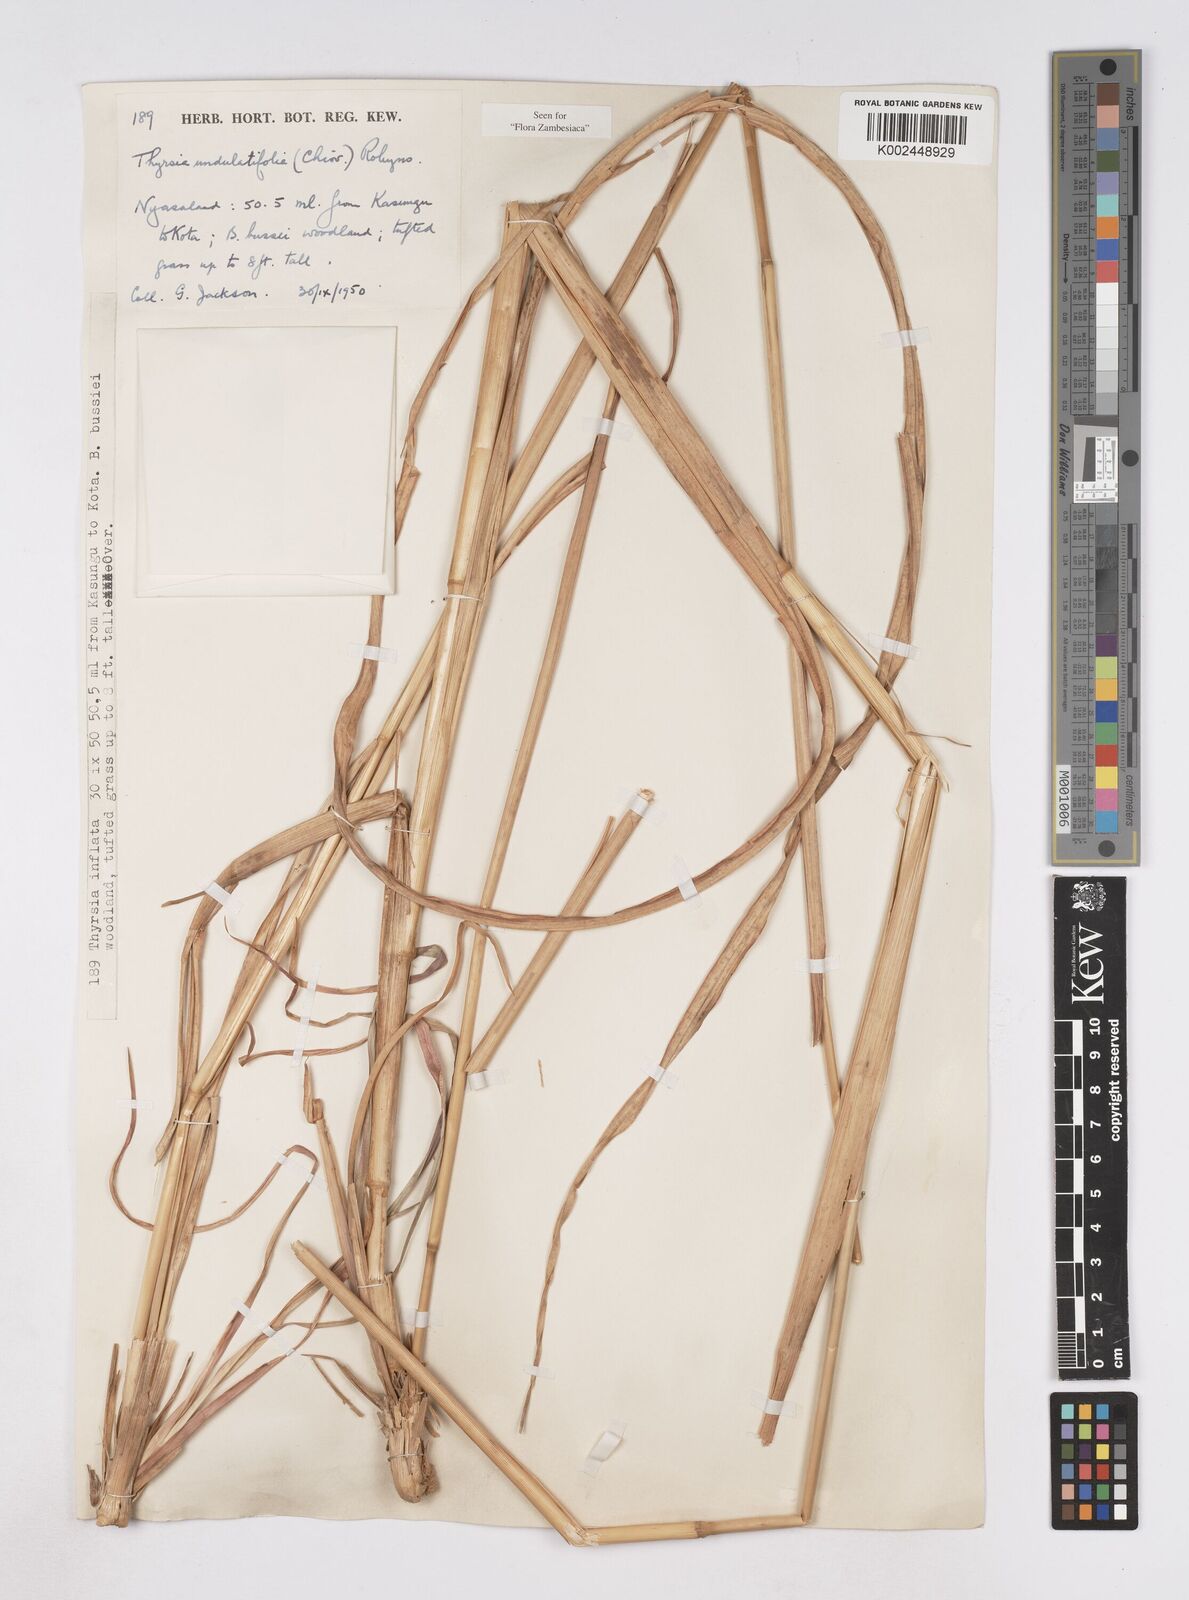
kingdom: Plantae
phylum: Tracheophyta
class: Liliopsida
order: Poales
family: Poaceae
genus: Thyrsia
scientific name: Thyrsia huillensis
